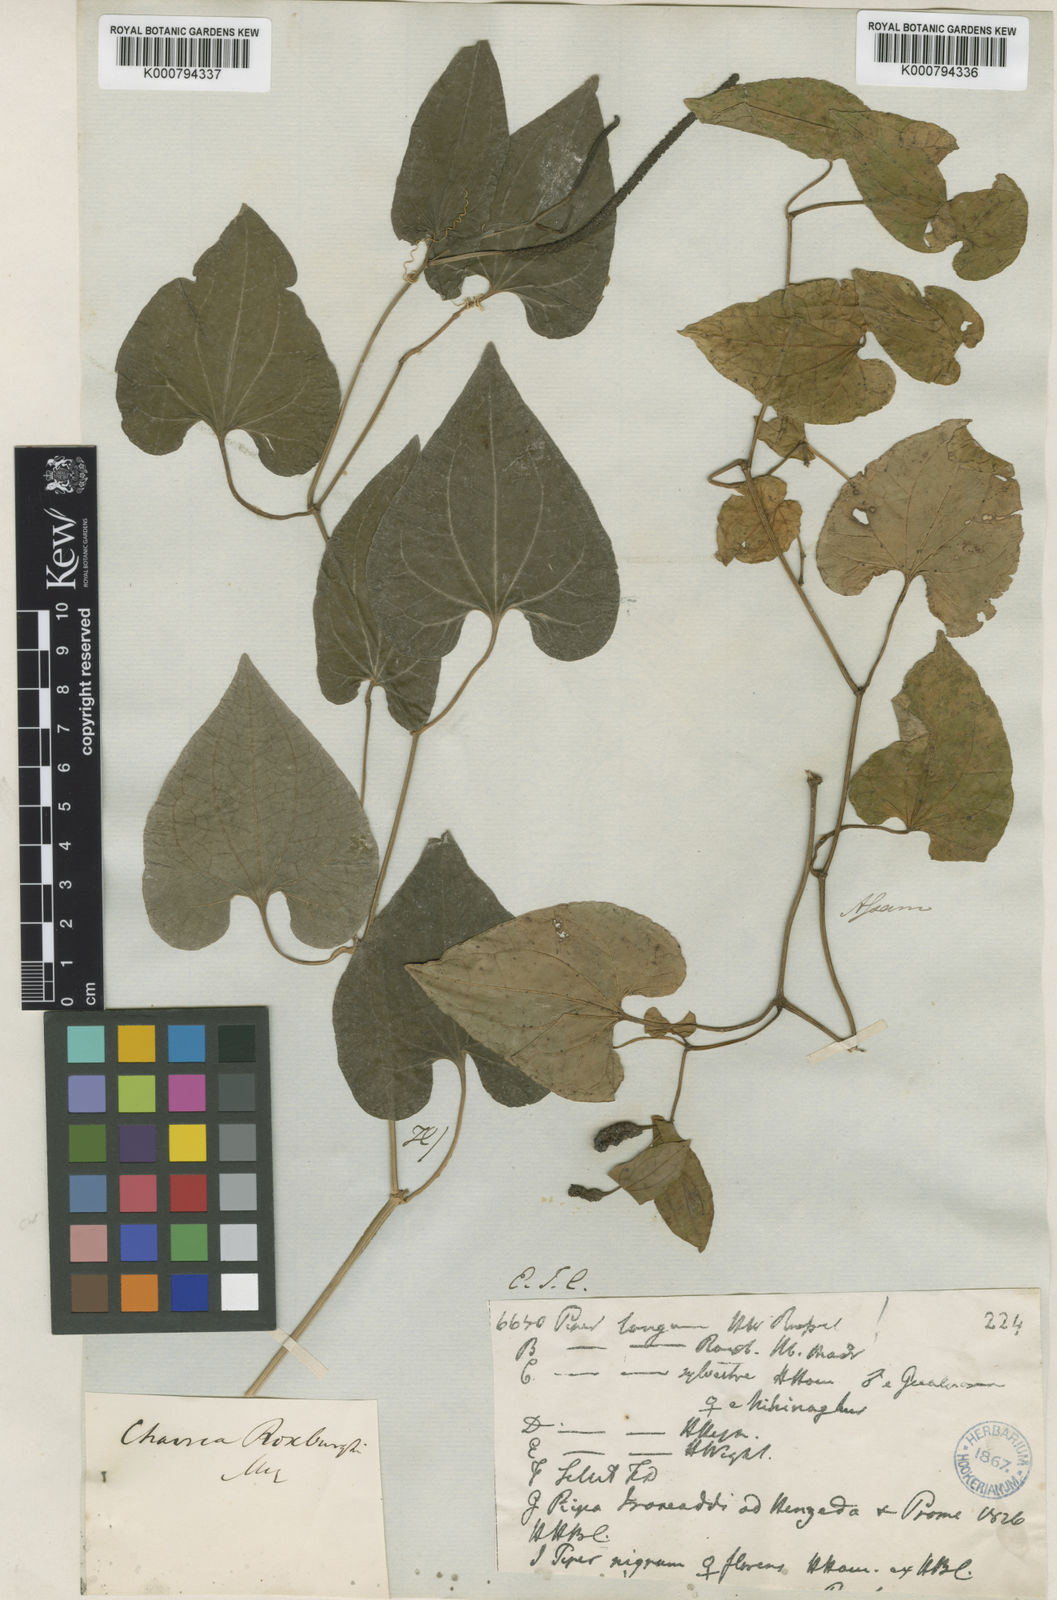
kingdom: Plantae
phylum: Tracheophyta
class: Magnoliopsida
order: Piperales
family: Piperaceae
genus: Piper
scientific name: Piper longum
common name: Long pepper
